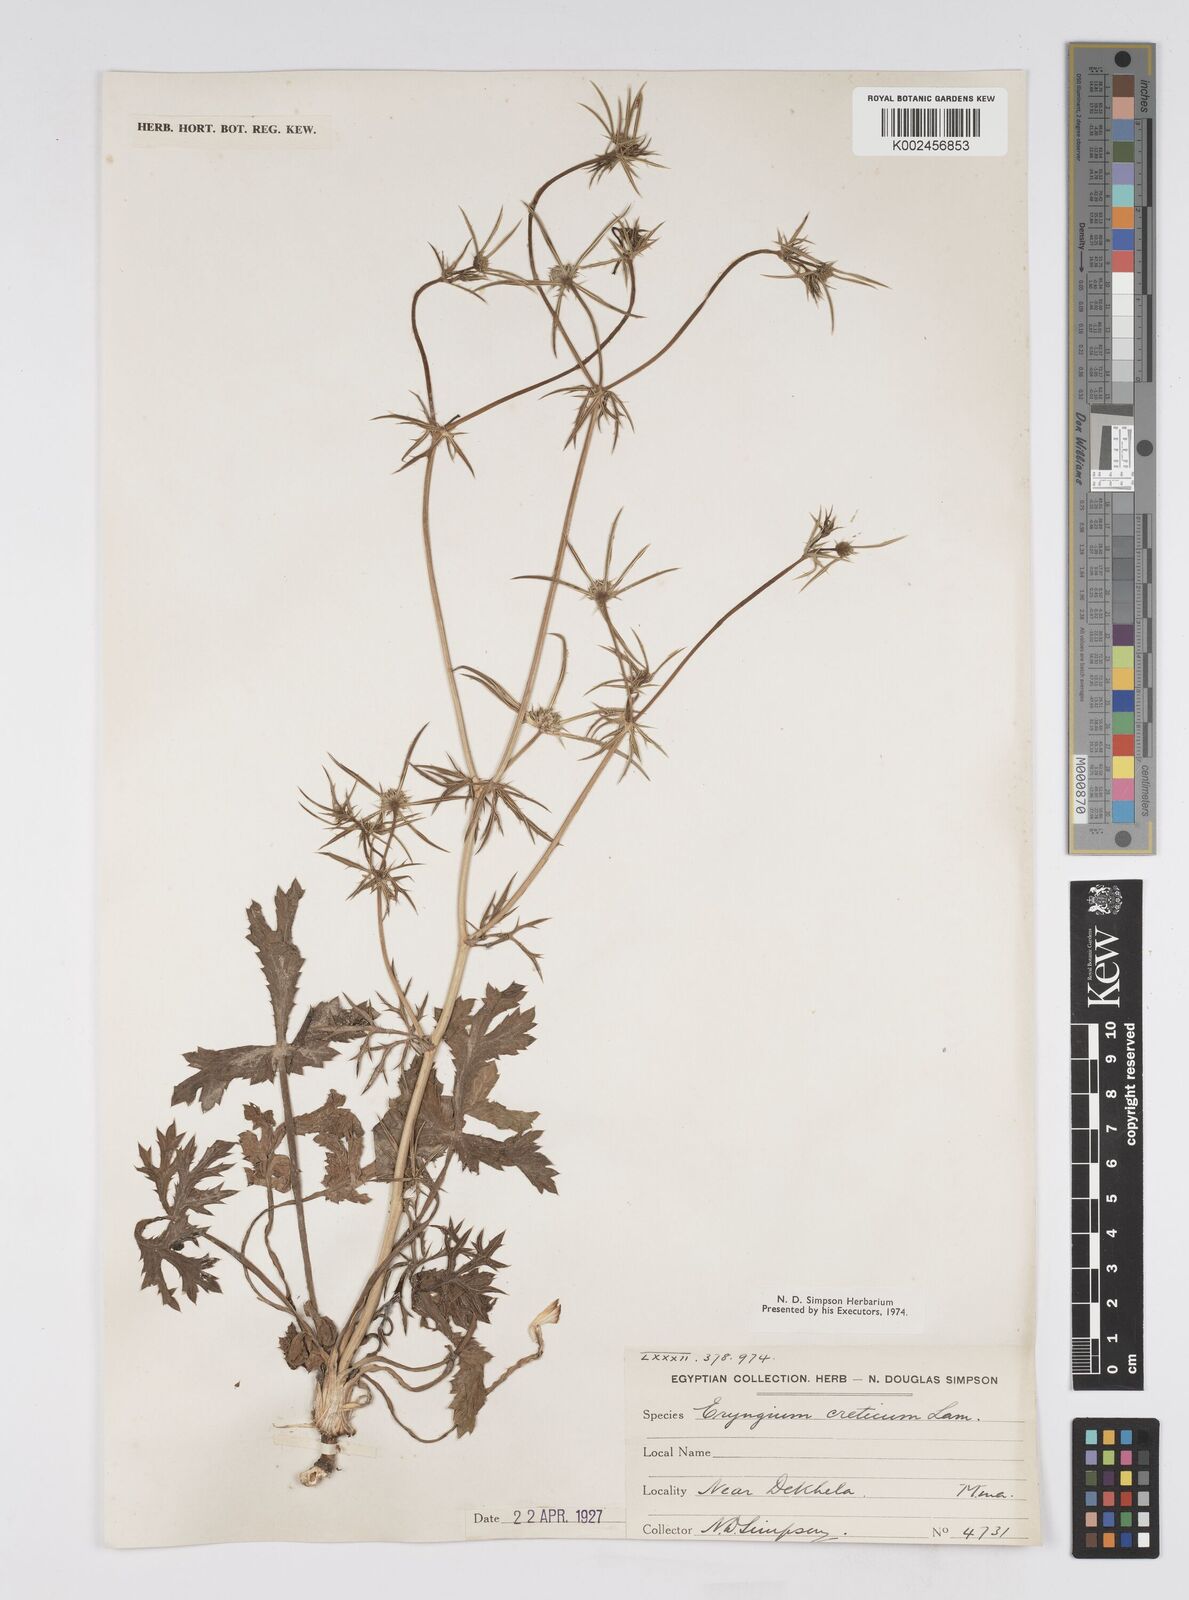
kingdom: Plantae
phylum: Tracheophyta
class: Magnoliopsida
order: Apiales
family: Apiaceae
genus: Eryngium
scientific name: Eryngium creticum
